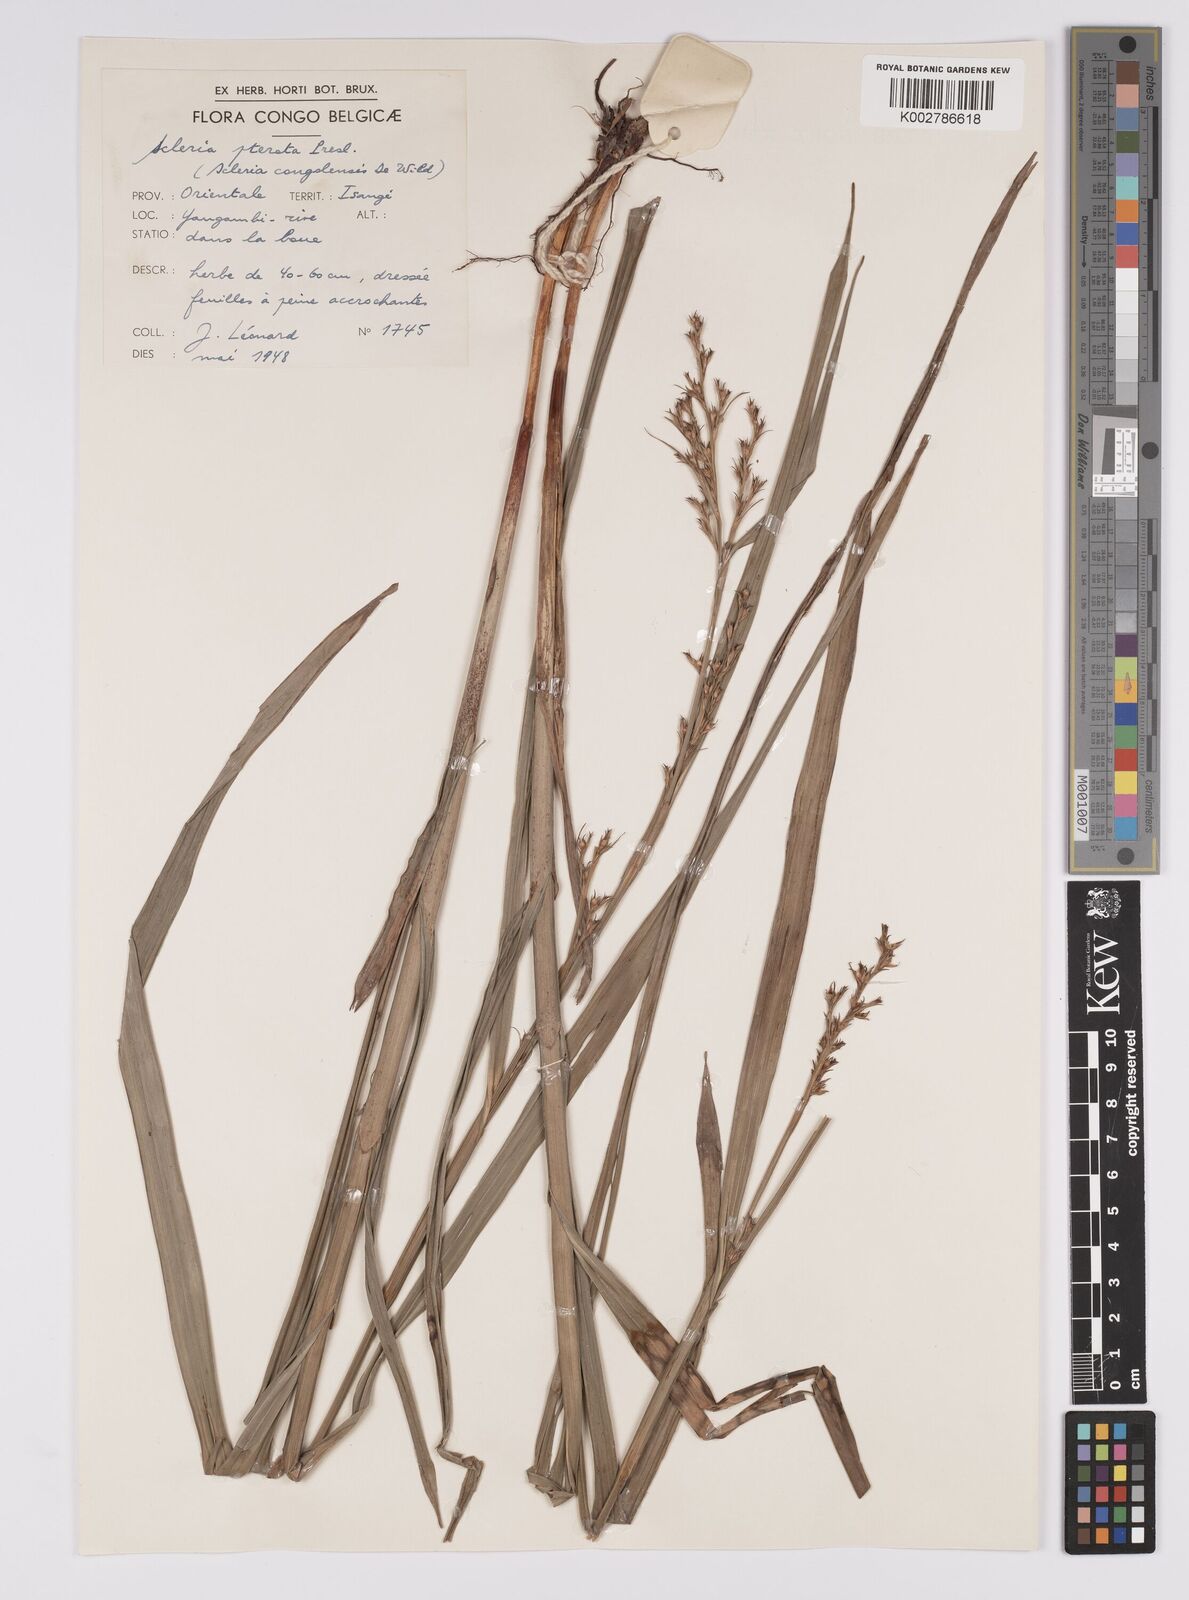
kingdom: Plantae
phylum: Tracheophyta
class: Liliopsida
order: Poales
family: Cyperaceae
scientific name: Cyperaceae
